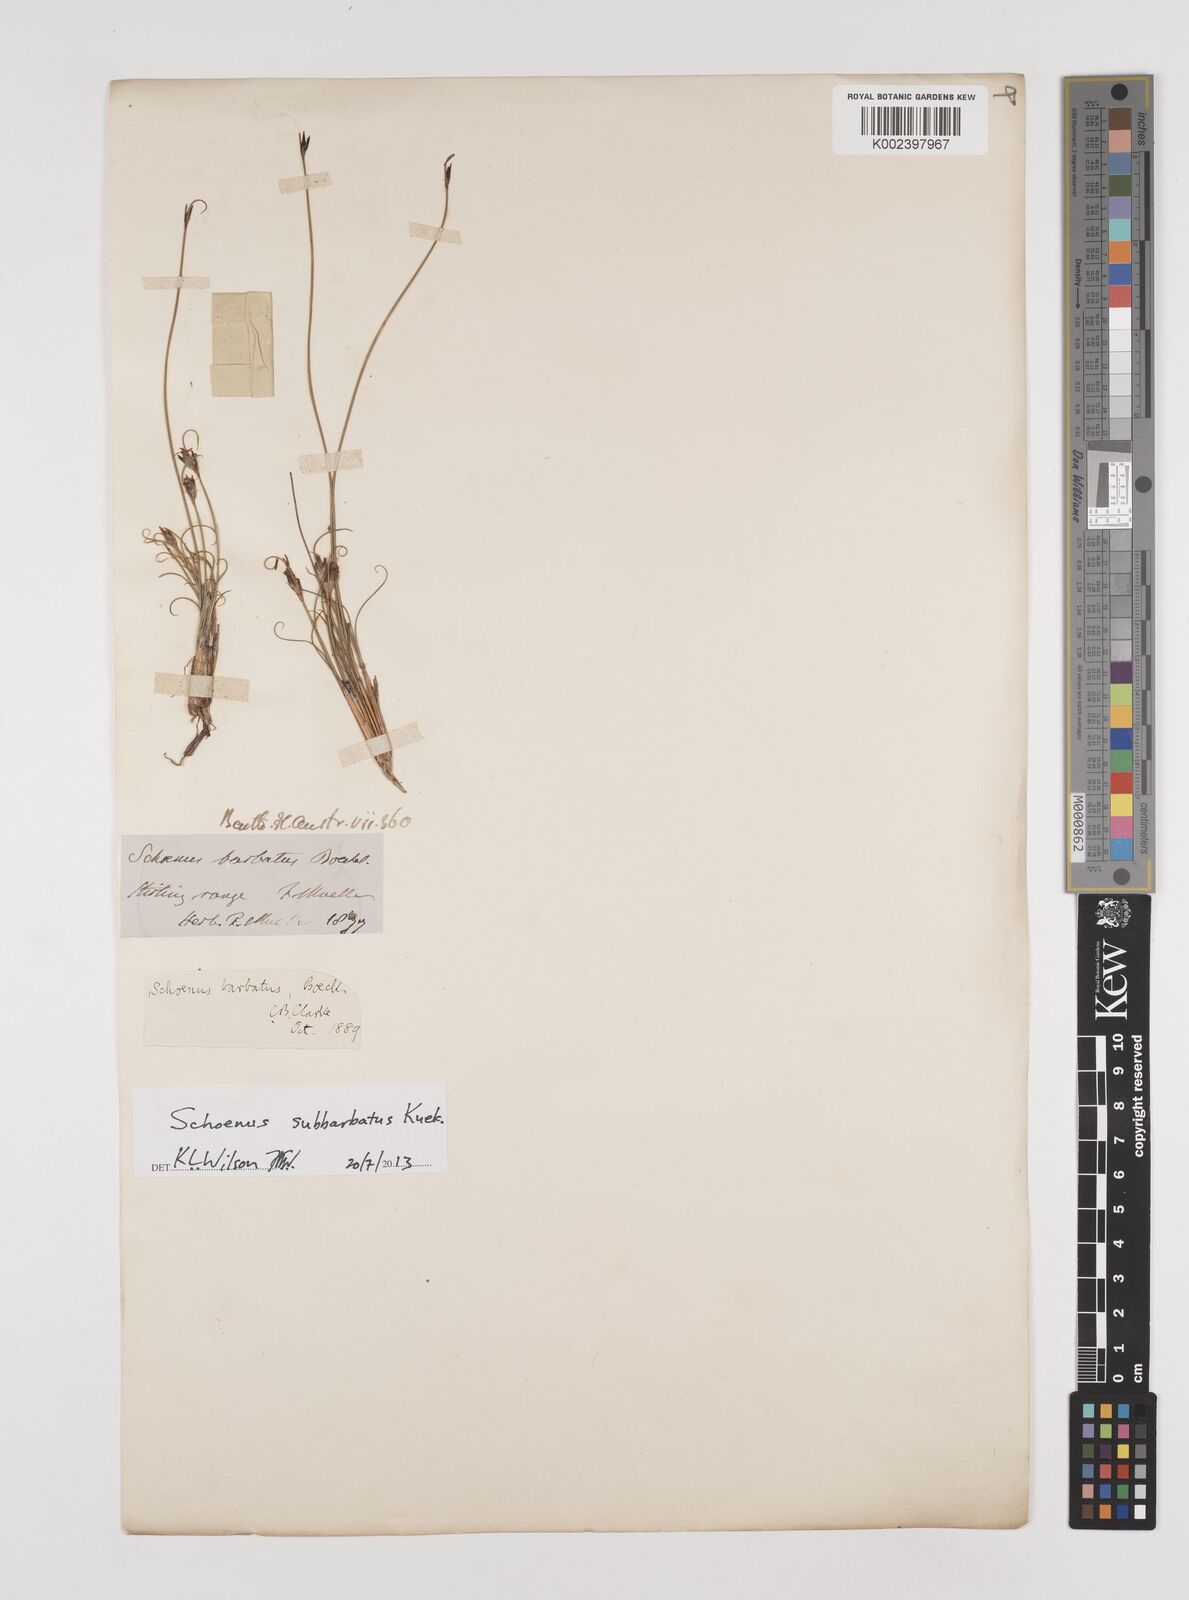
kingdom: Plantae
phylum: Tracheophyta
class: Liliopsida
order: Poales
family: Cyperaceae
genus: Schoenus
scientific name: Schoenus subflavus
